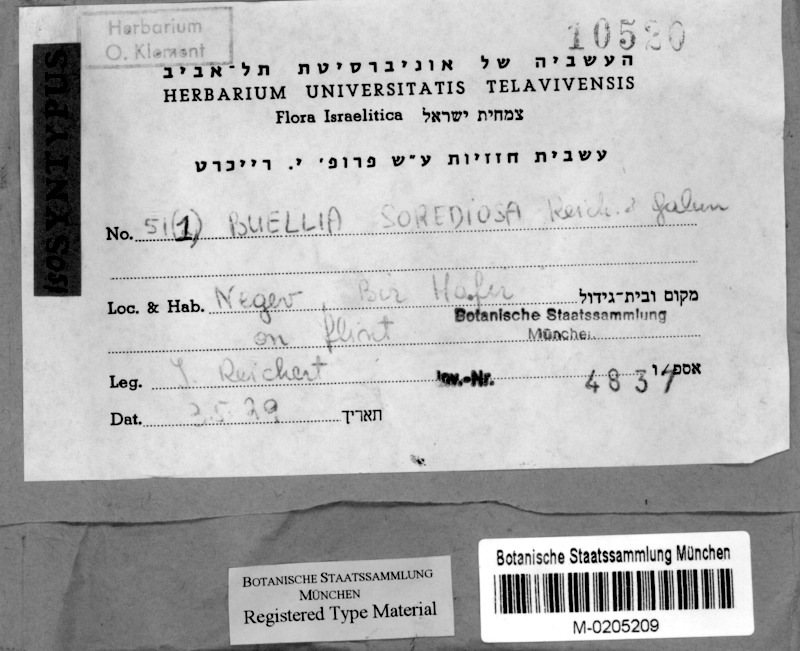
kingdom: Fungi
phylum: Ascomycota
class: Lecanoromycetes
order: Caliciales
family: Caliciaceae
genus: Buellia
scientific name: Buellia
